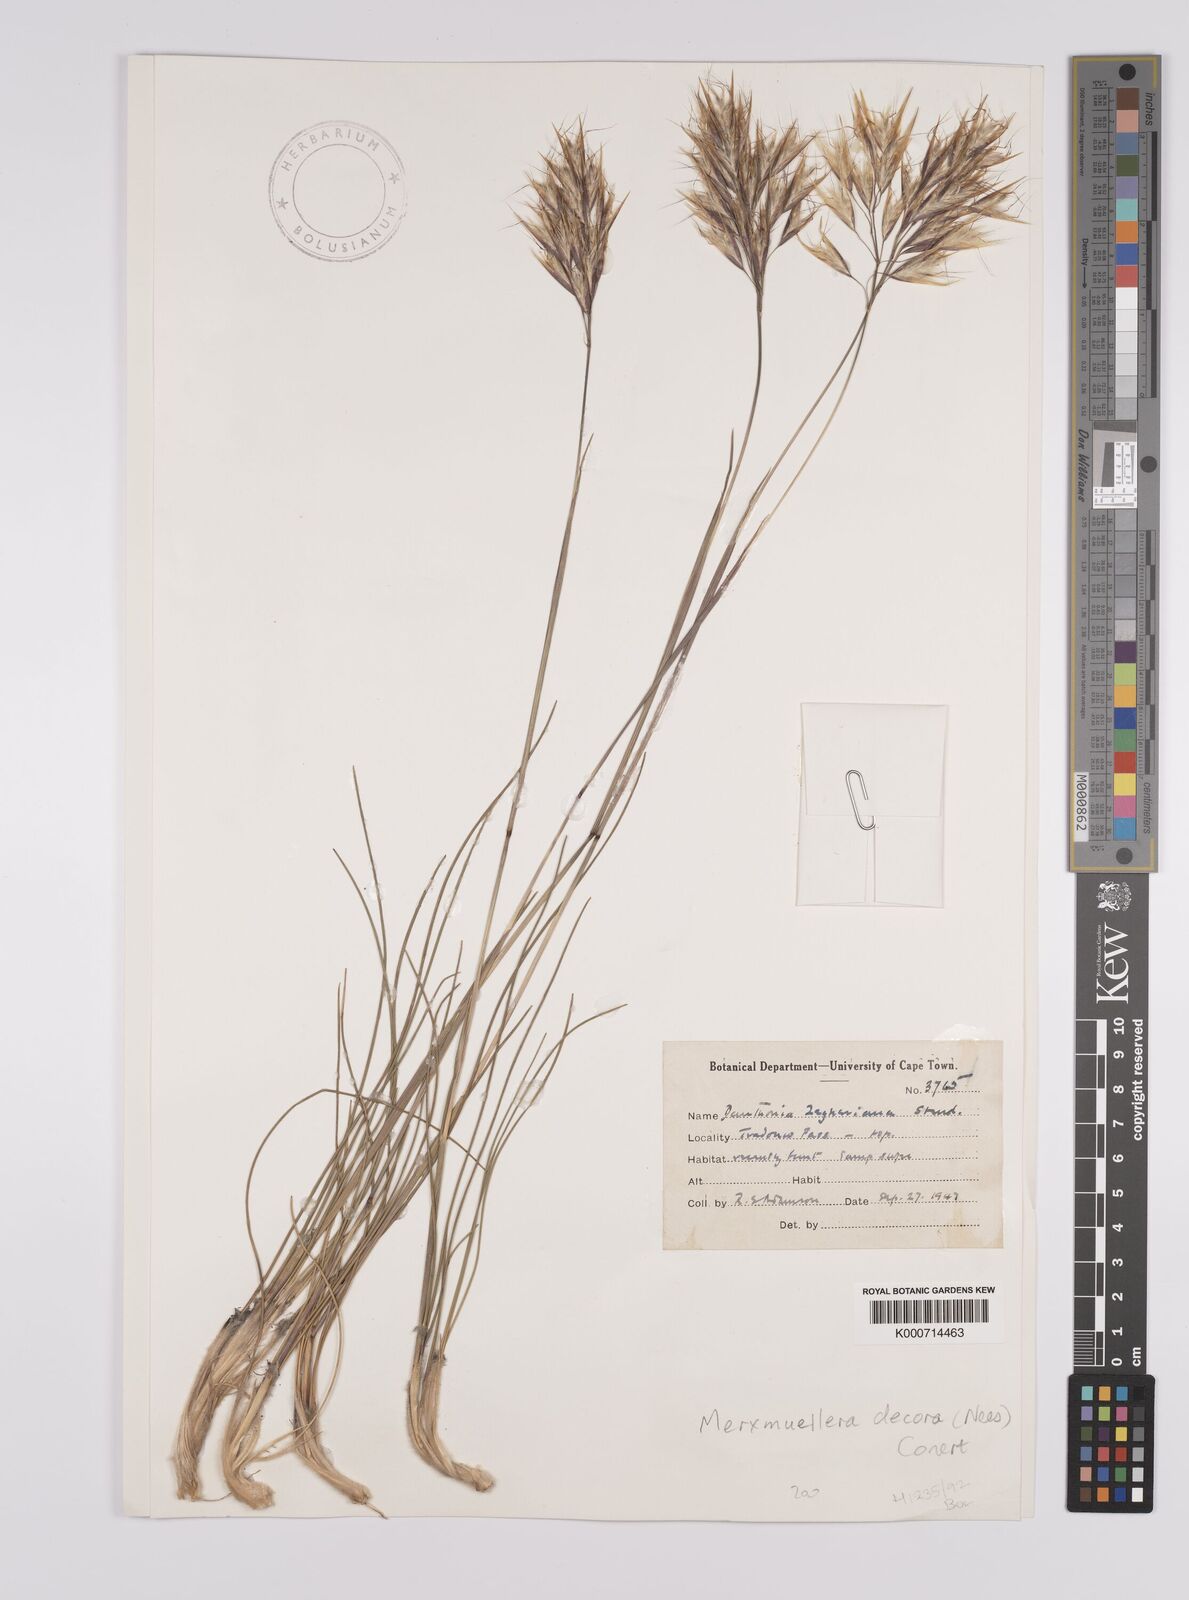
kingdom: Plantae
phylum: Tracheophyta
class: Liliopsida
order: Poales
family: Poaceae
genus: Rytidosperma
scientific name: Rytidosperma
